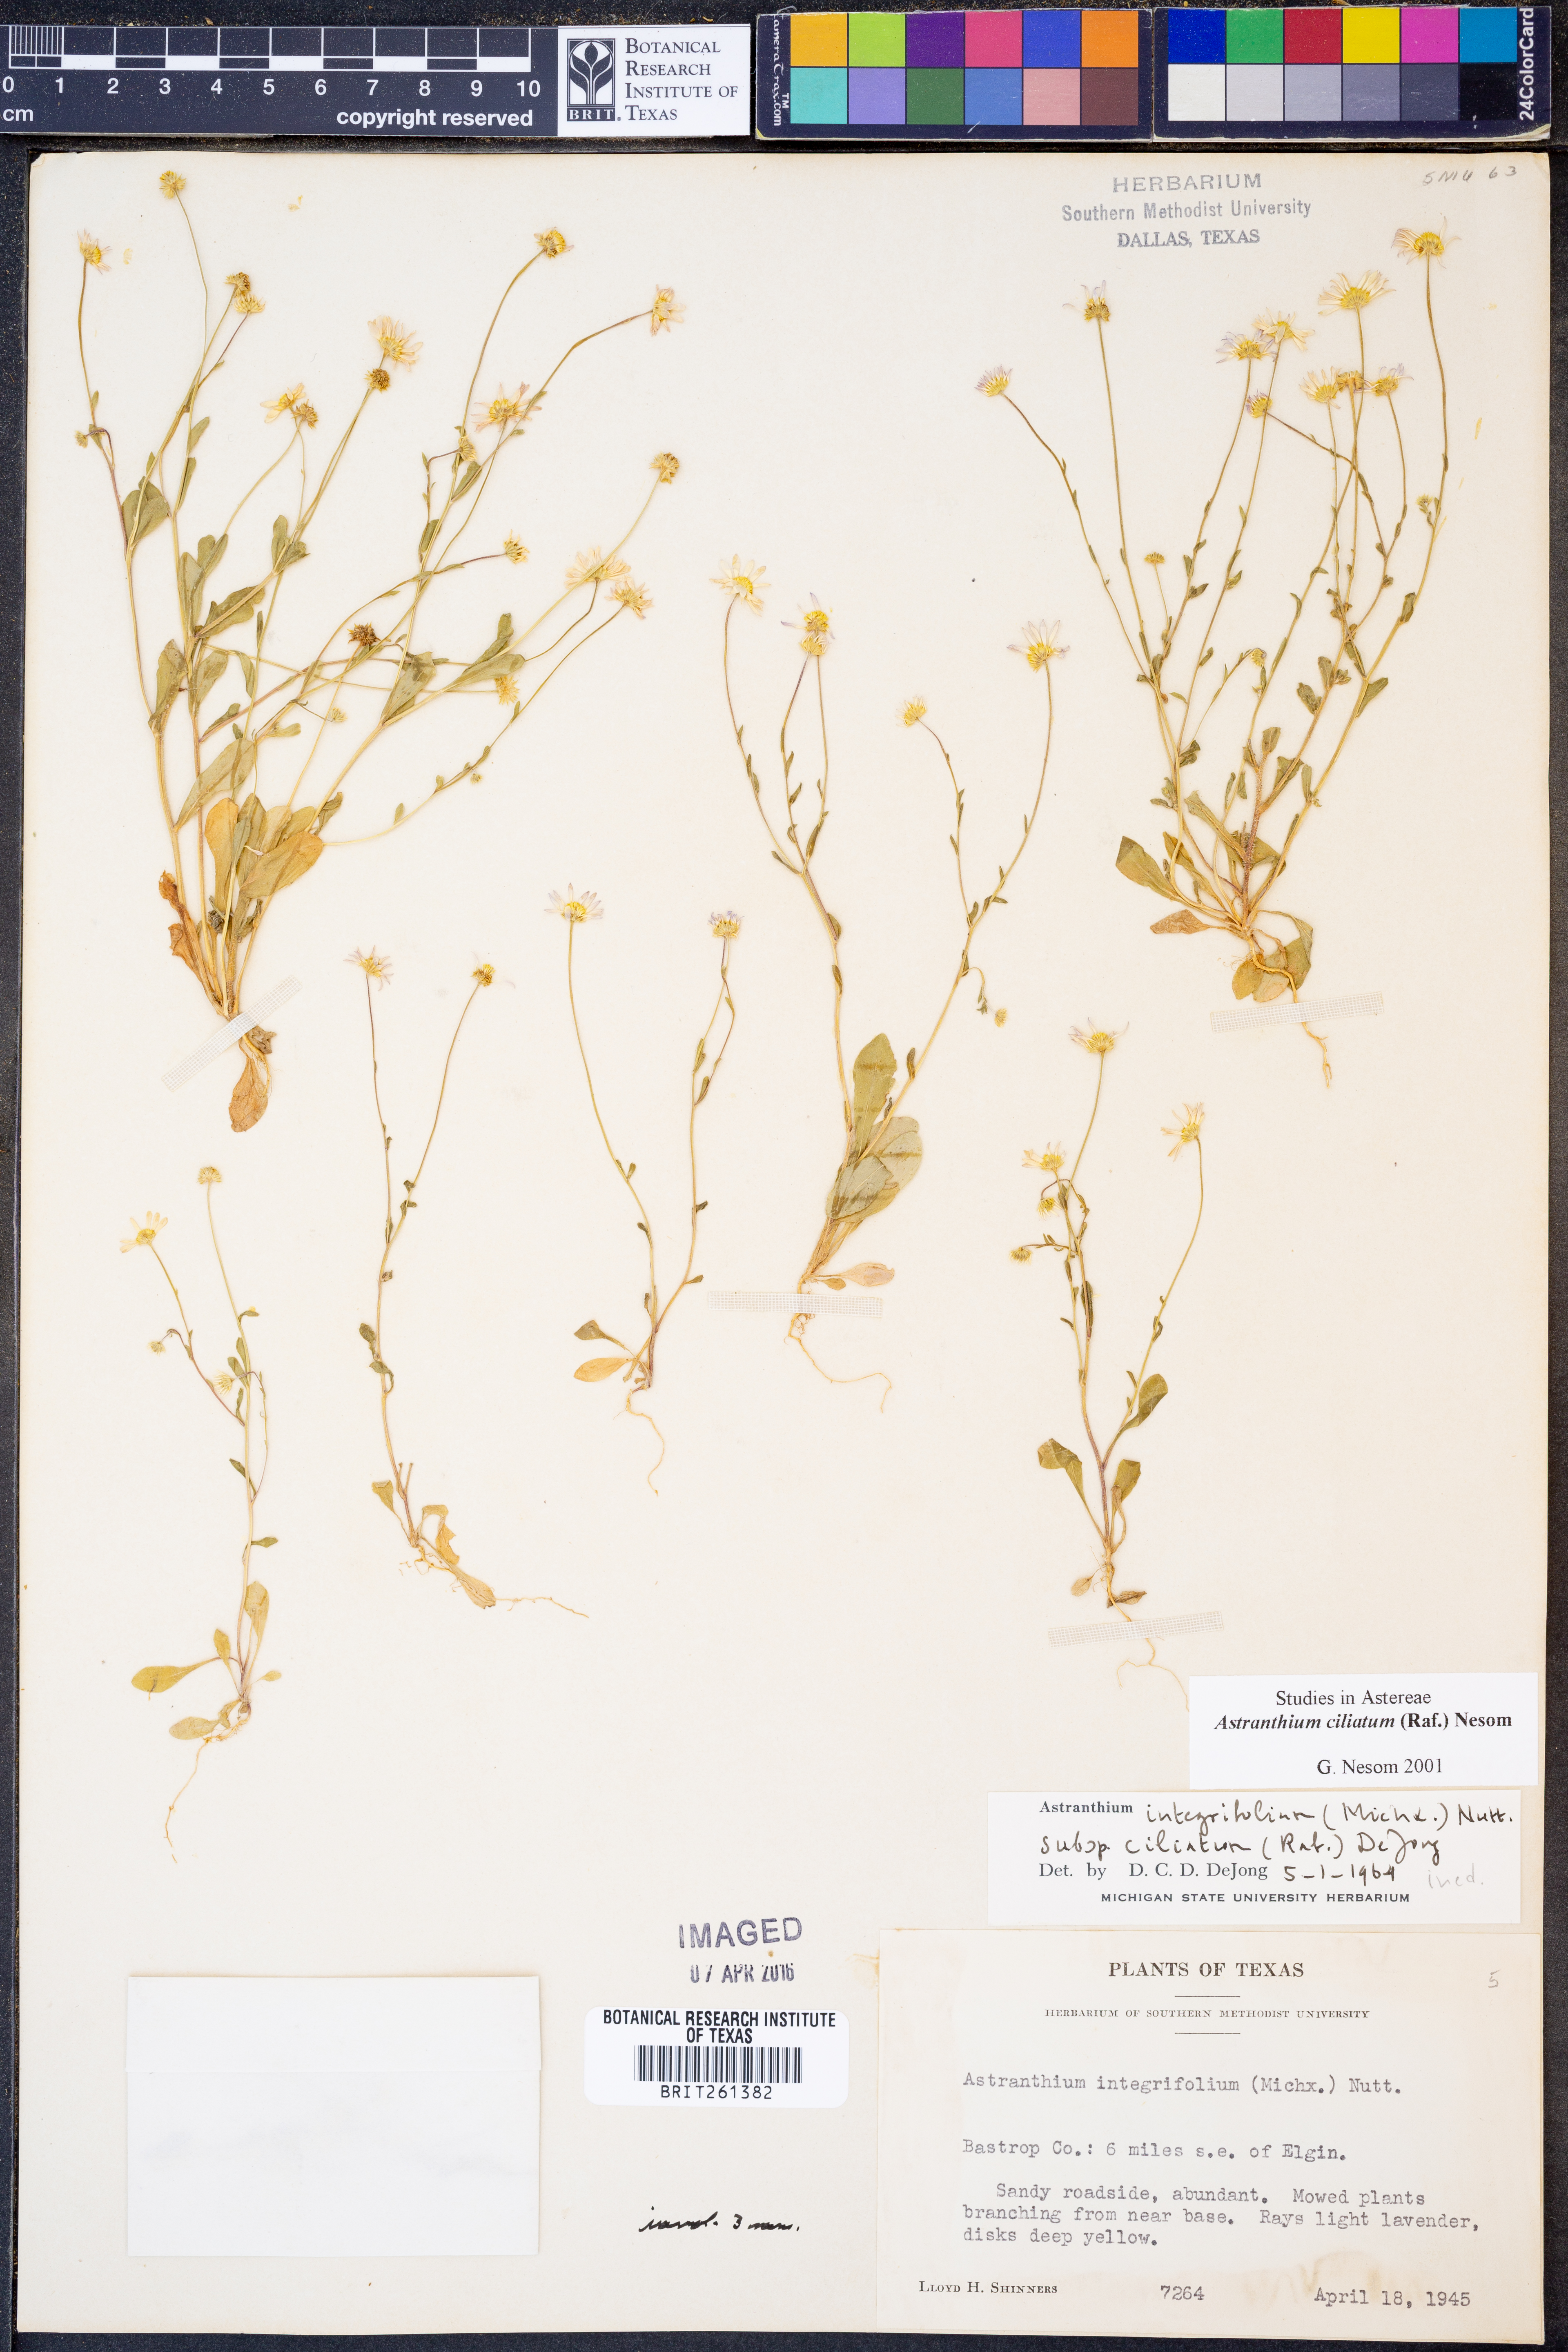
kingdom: Plantae
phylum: Tracheophyta
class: Magnoliopsida
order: Asterales
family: Asteraceae
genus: Astranthium
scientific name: Astranthium ciliatum
